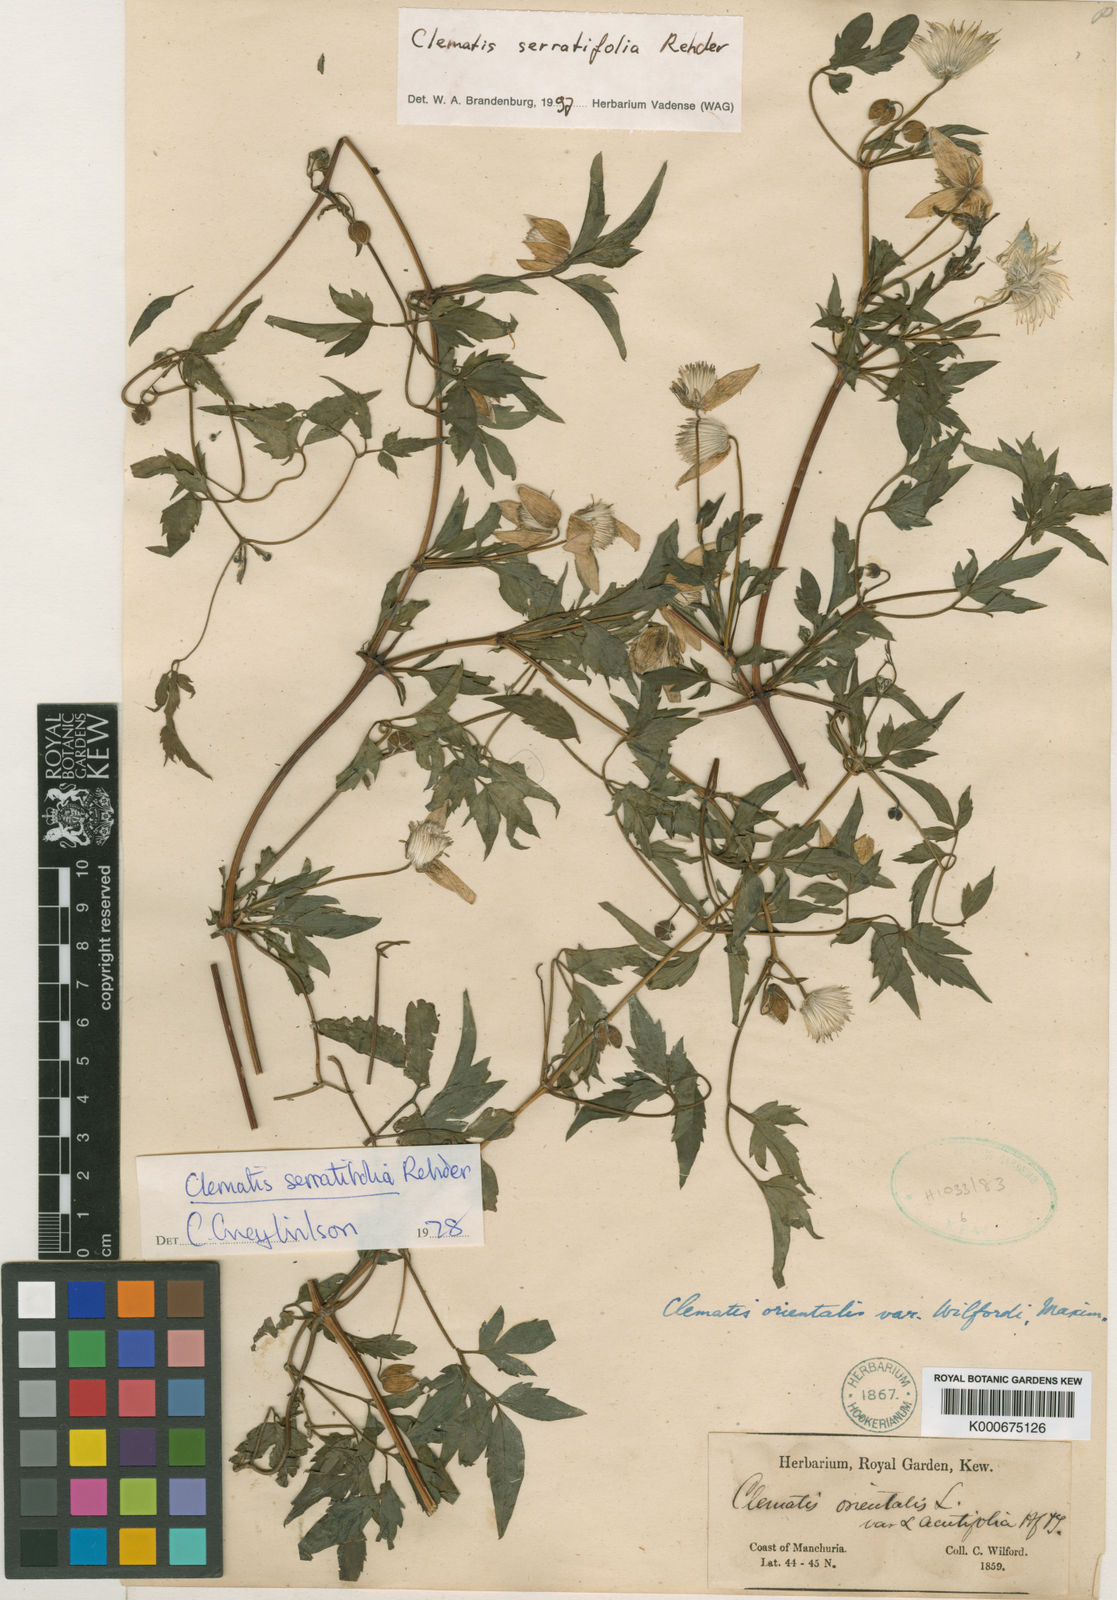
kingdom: Plantae
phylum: Tracheophyta
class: Magnoliopsida
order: Ranunculales
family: Ranunculaceae
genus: Clematis
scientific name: Clematis serratifolia
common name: Korean clematis
